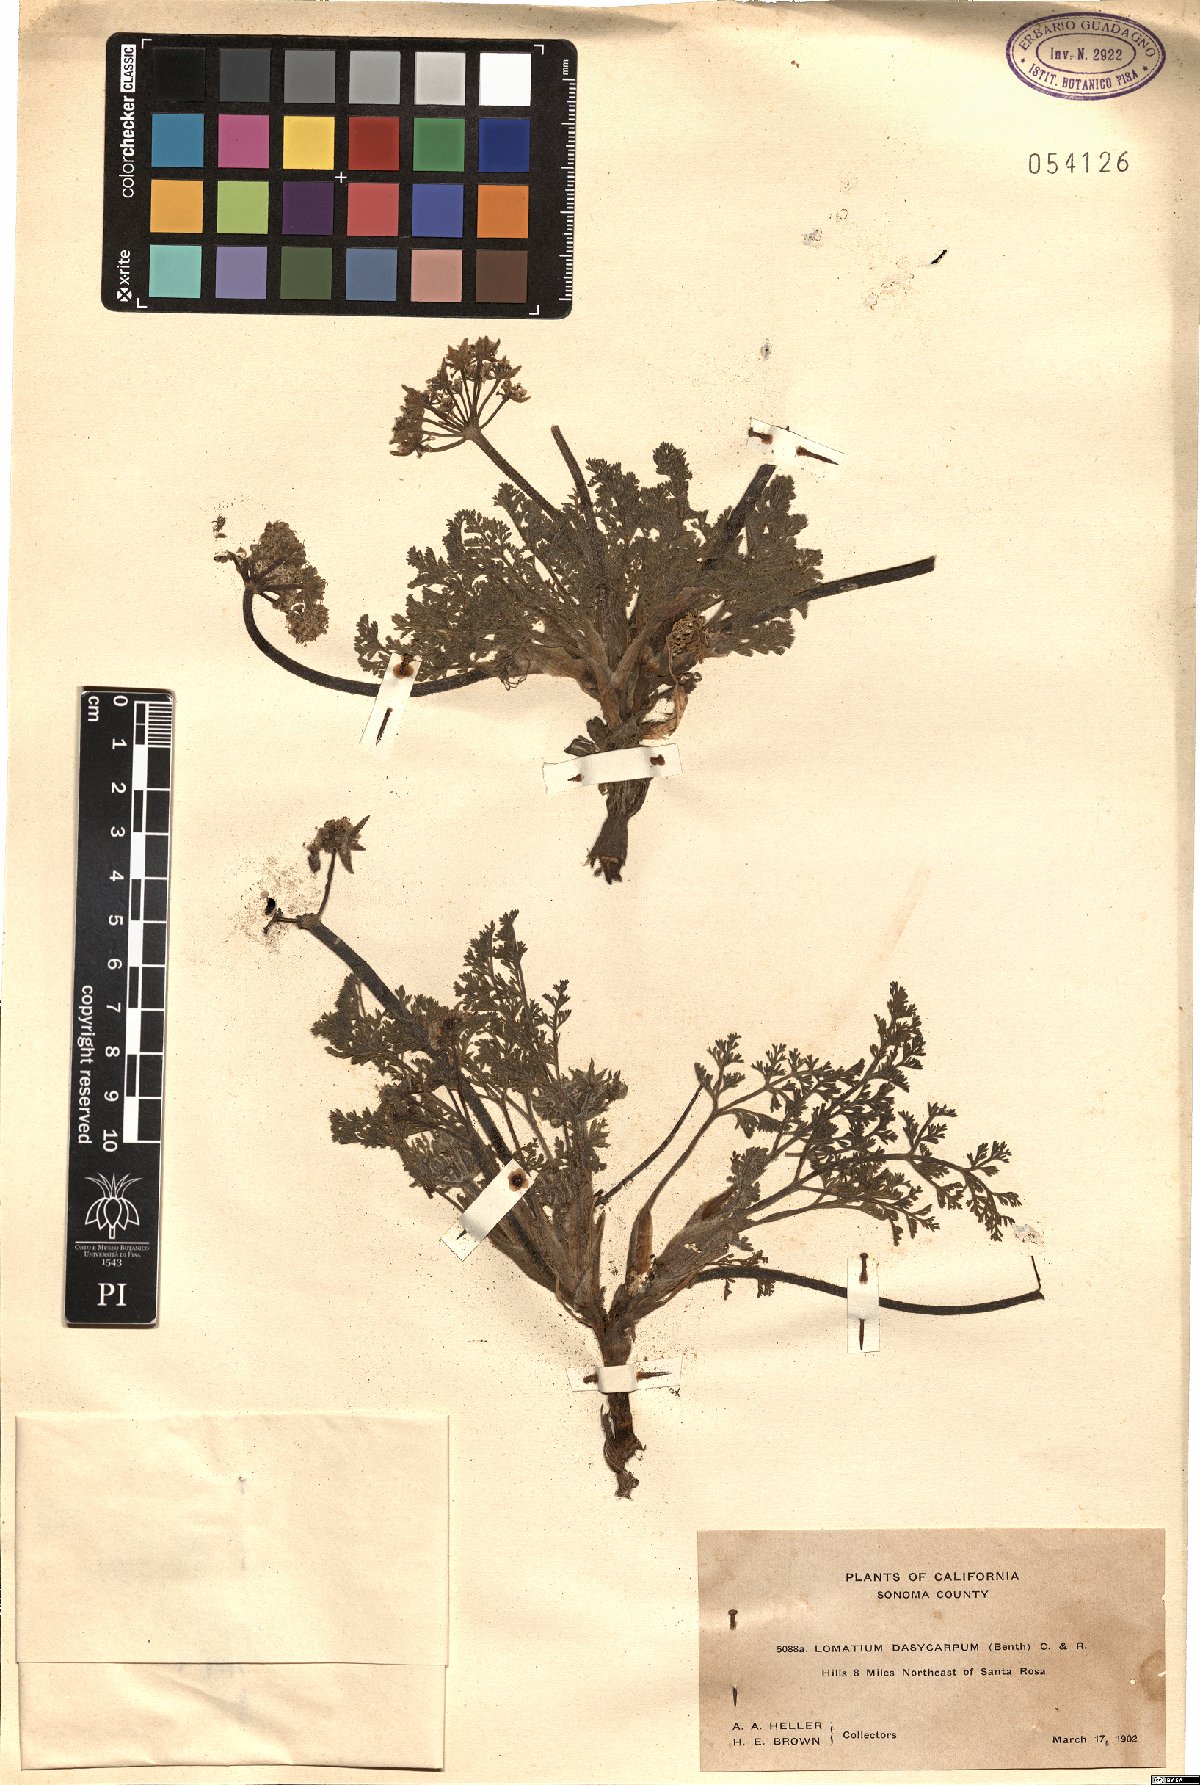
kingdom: Plantae
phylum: Tracheophyta
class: Magnoliopsida
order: Apiales
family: Apiaceae
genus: Lomatium
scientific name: Lomatium dasycarpum
